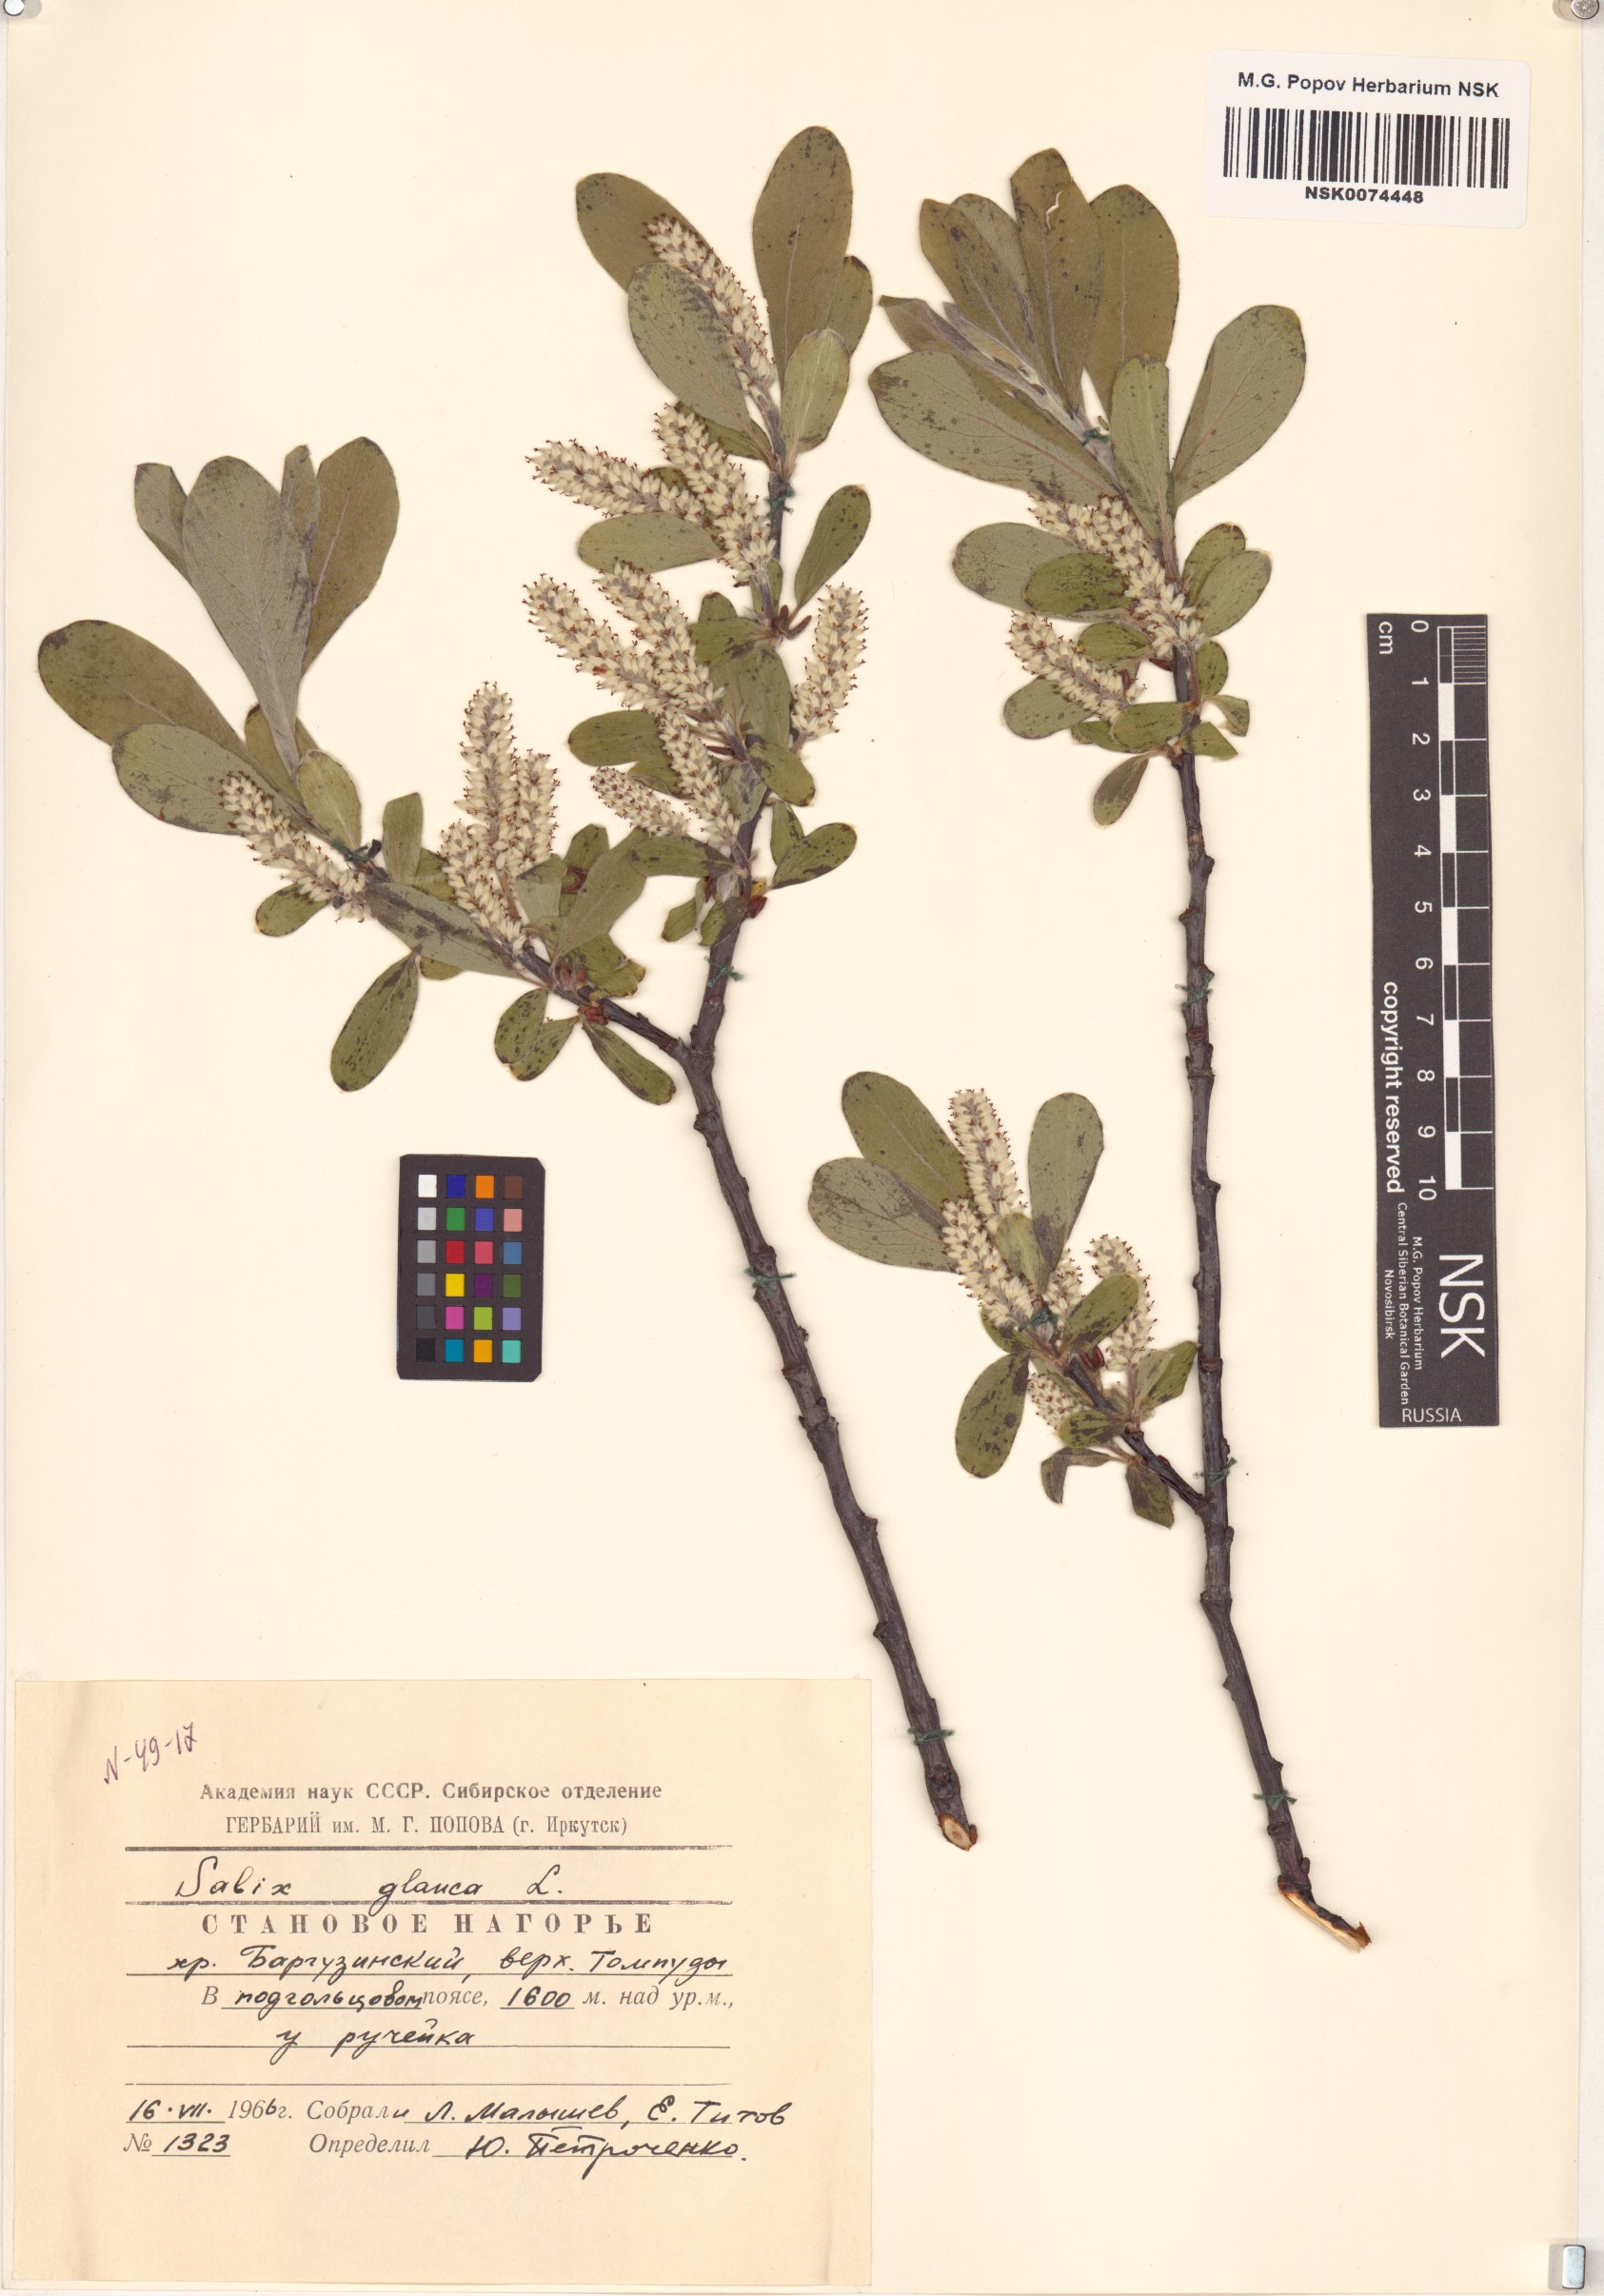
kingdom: Plantae
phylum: Tracheophyta
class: Magnoliopsida
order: Malpighiales
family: Salicaceae
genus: Salix
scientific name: Salix glauca
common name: Glaucous willow
